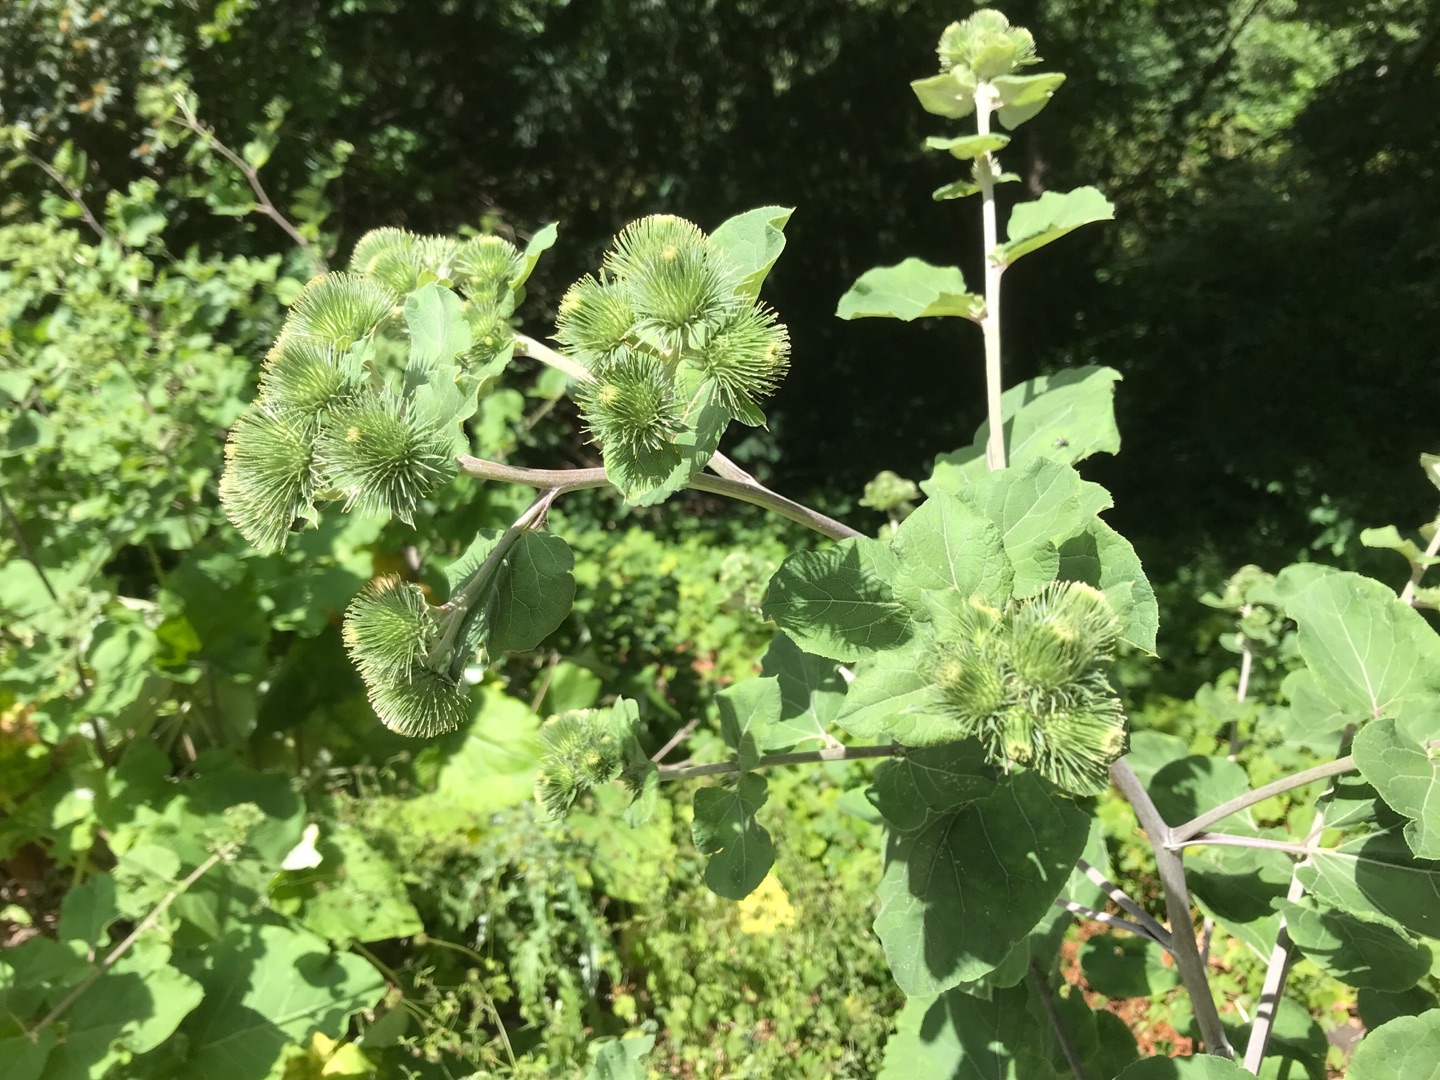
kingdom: Plantae
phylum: Tracheophyta
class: Magnoliopsida
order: Asterales
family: Asteraceae
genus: Arctium
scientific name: Arctium lappa
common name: Glat burre
